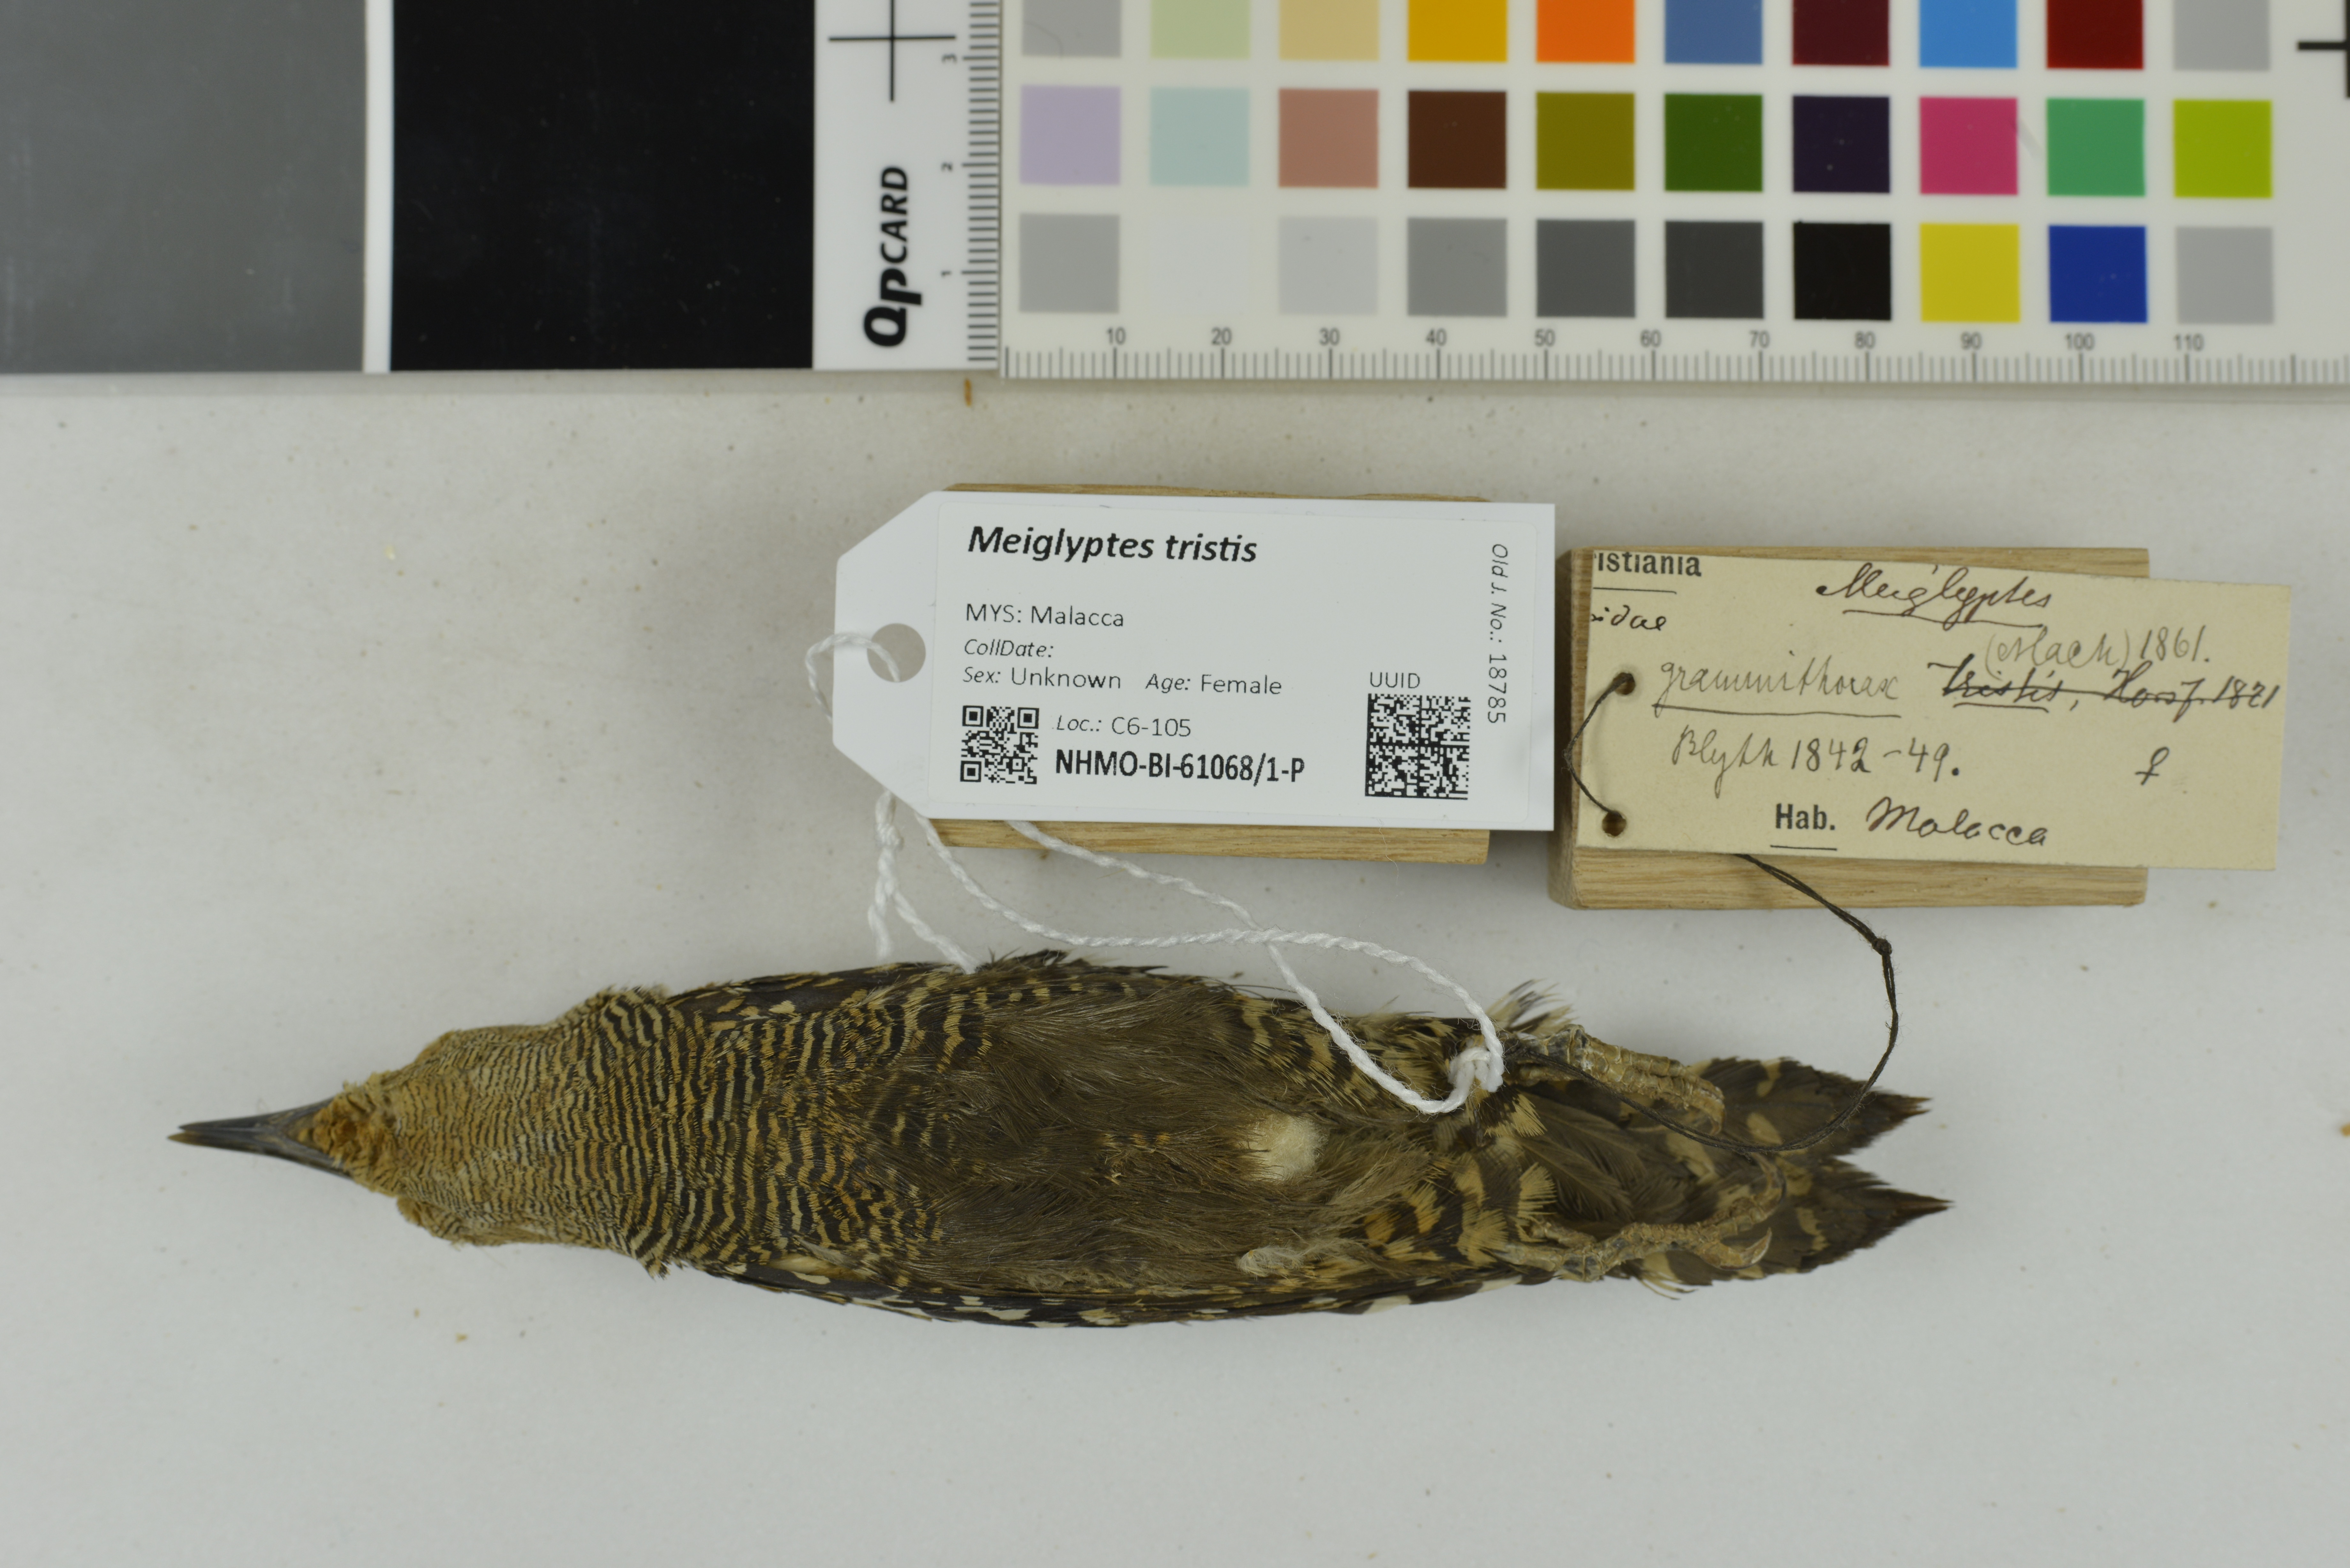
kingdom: Animalia
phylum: Chordata
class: Aves
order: Piciformes
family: Picidae
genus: Meiglyptes
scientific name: Meiglyptes tristis
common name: Buff-rumped woodpecker
